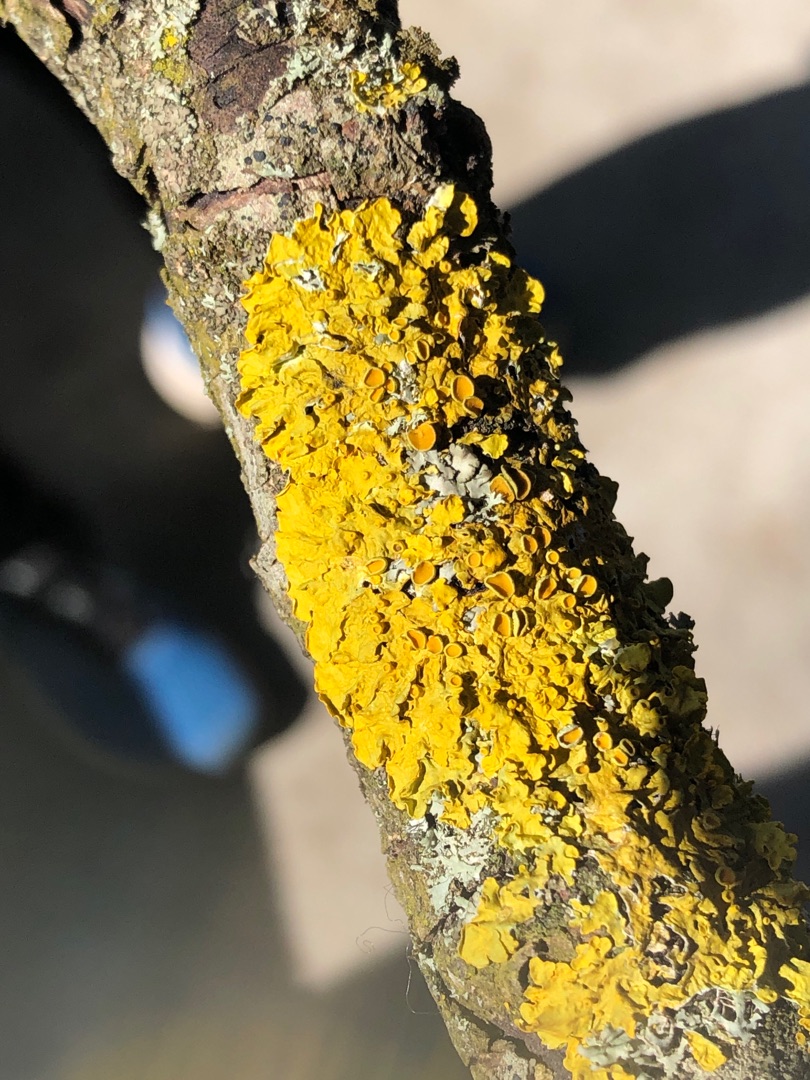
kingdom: Fungi
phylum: Ascomycota
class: Lecanoromycetes
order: Teloschistales
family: Teloschistaceae
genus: Xanthoria
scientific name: Xanthoria parietina
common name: Almindelig væggelav
